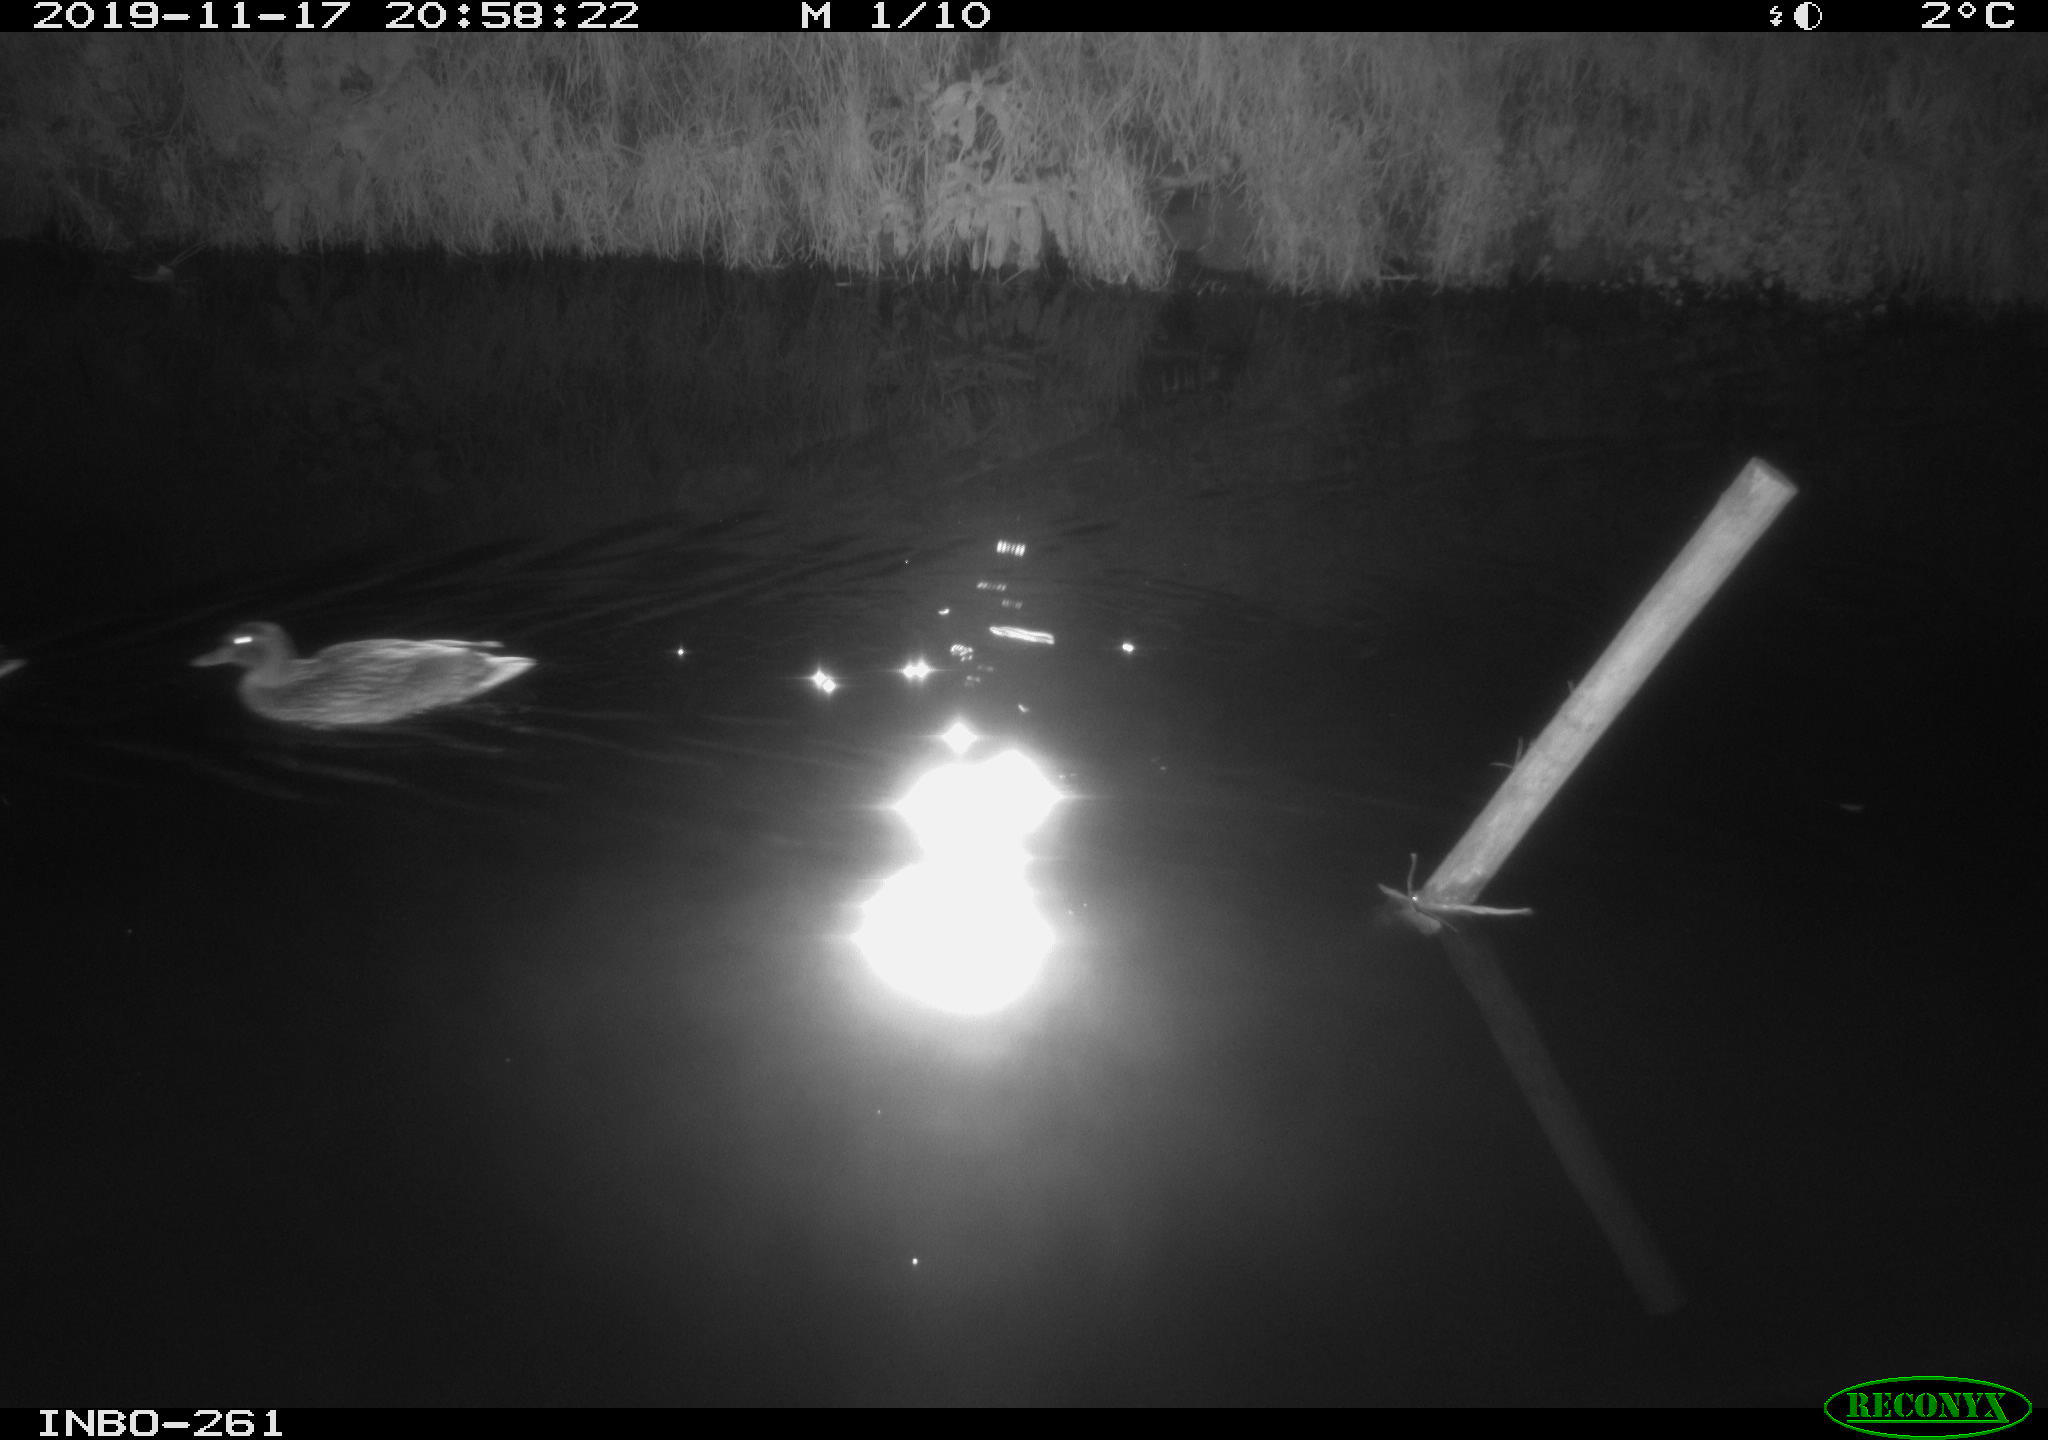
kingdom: Animalia
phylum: Chordata
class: Aves
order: Anseriformes
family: Anatidae
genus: Anas
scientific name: Anas platyrhynchos
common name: Mallard
